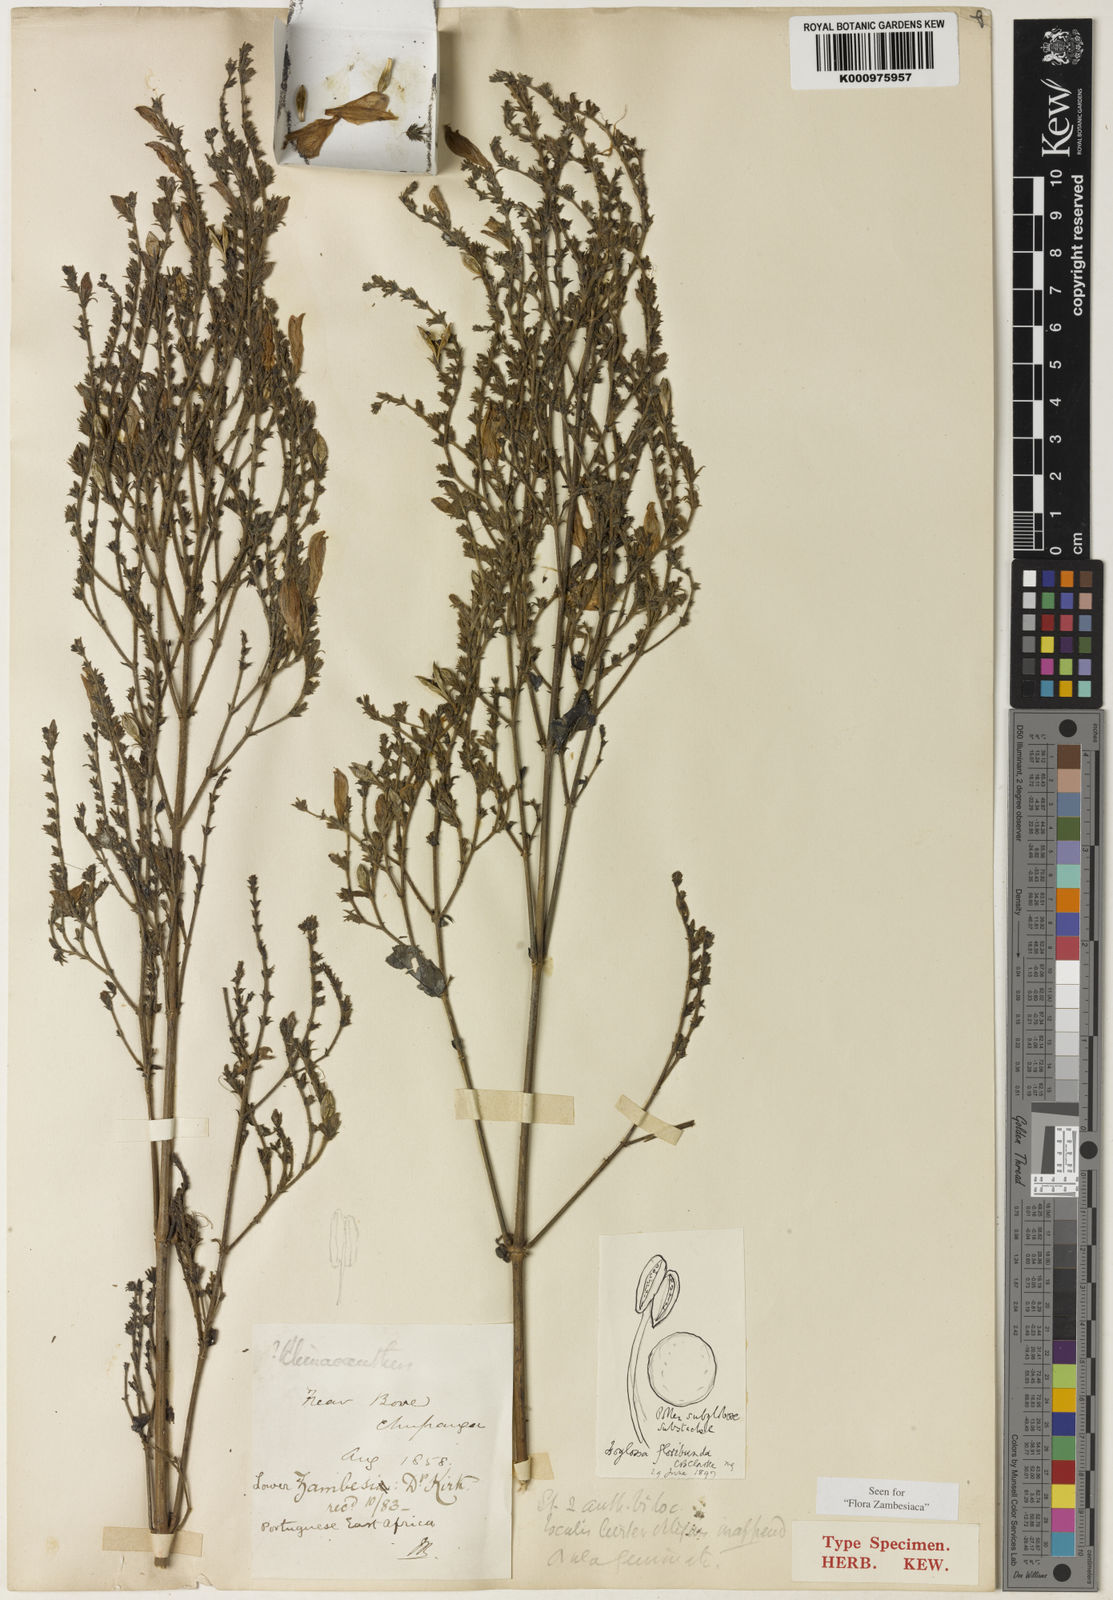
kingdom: Plantae
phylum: Tracheophyta
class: Magnoliopsida
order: Lamiales
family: Acanthaceae
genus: Isoglossa
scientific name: Isoglossa floribunda
